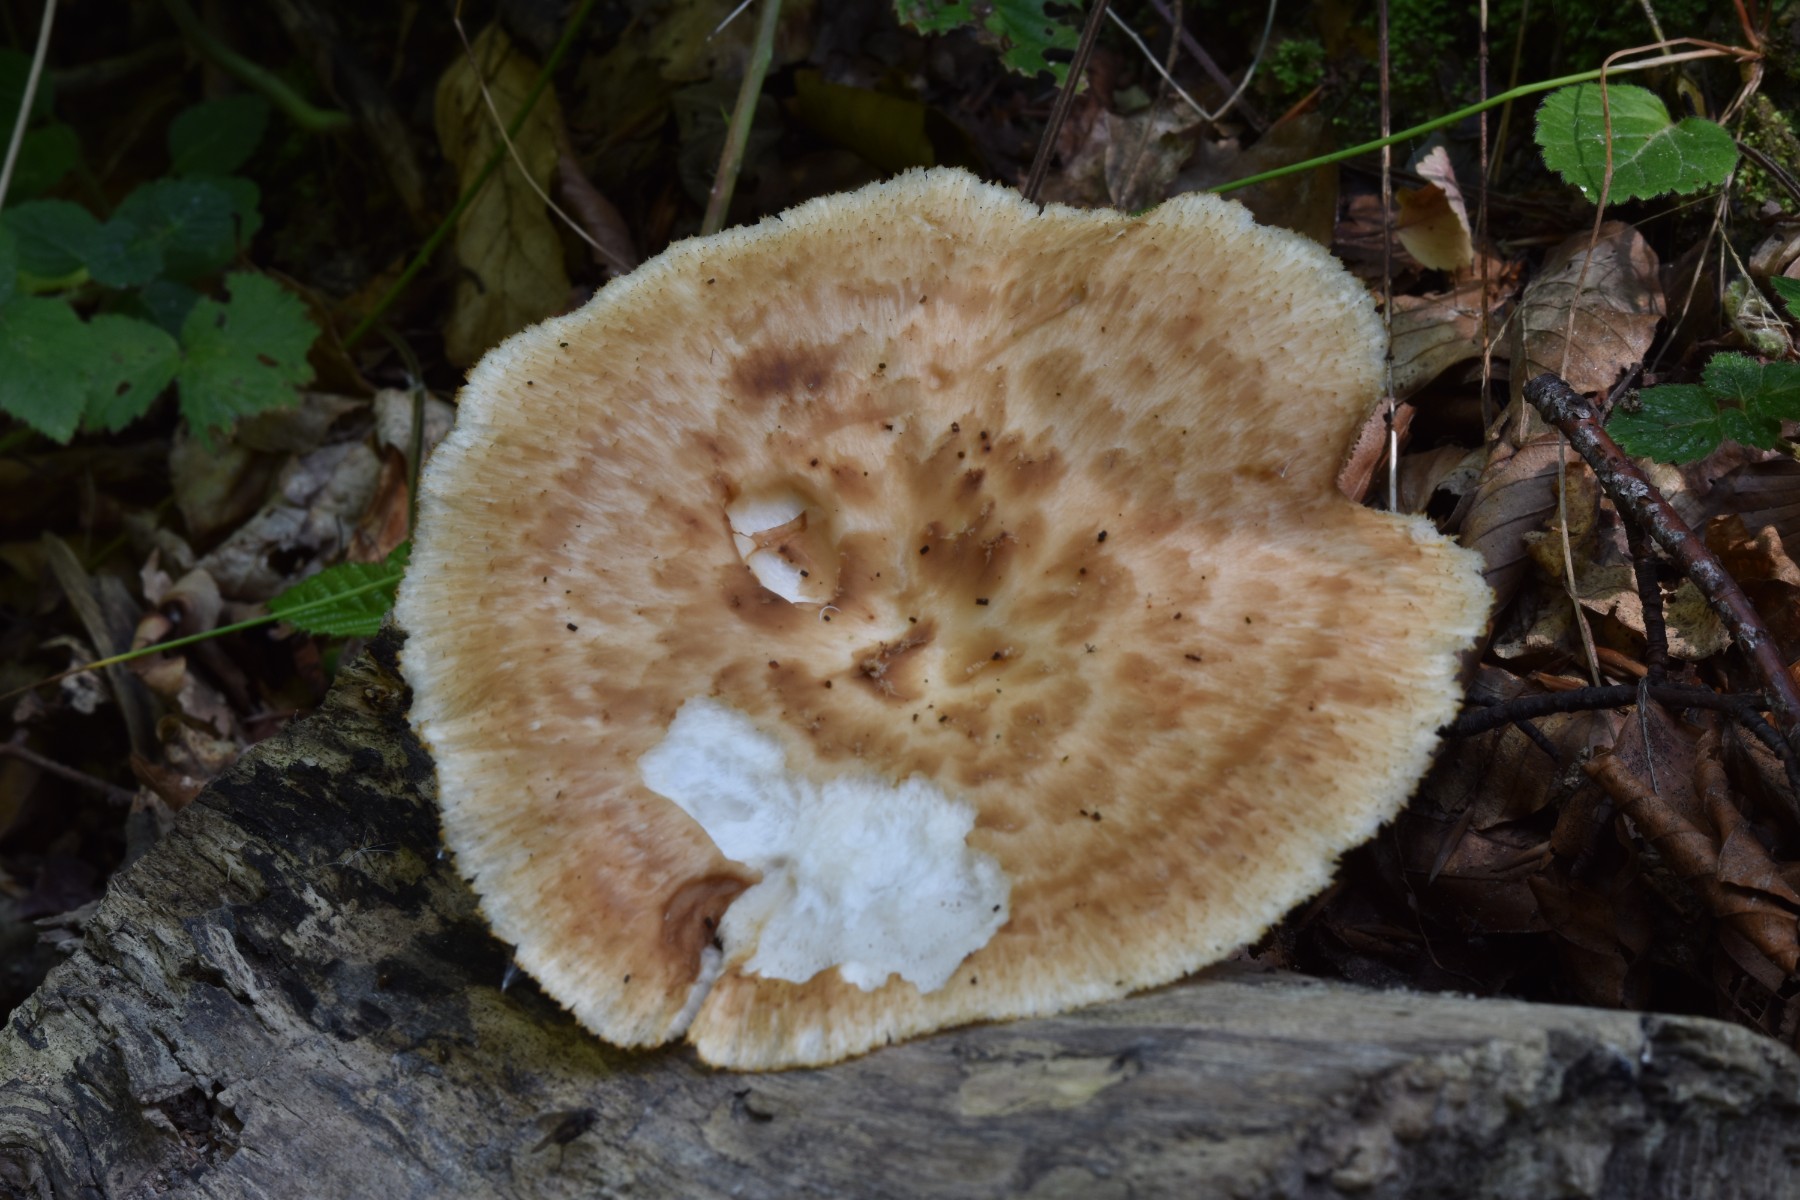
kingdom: Fungi
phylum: Basidiomycota
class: Agaricomycetes
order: Polyporales
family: Polyporaceae
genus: Polyporus
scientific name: Polyporus tuberaster
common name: knoldet stilkporesvamp
